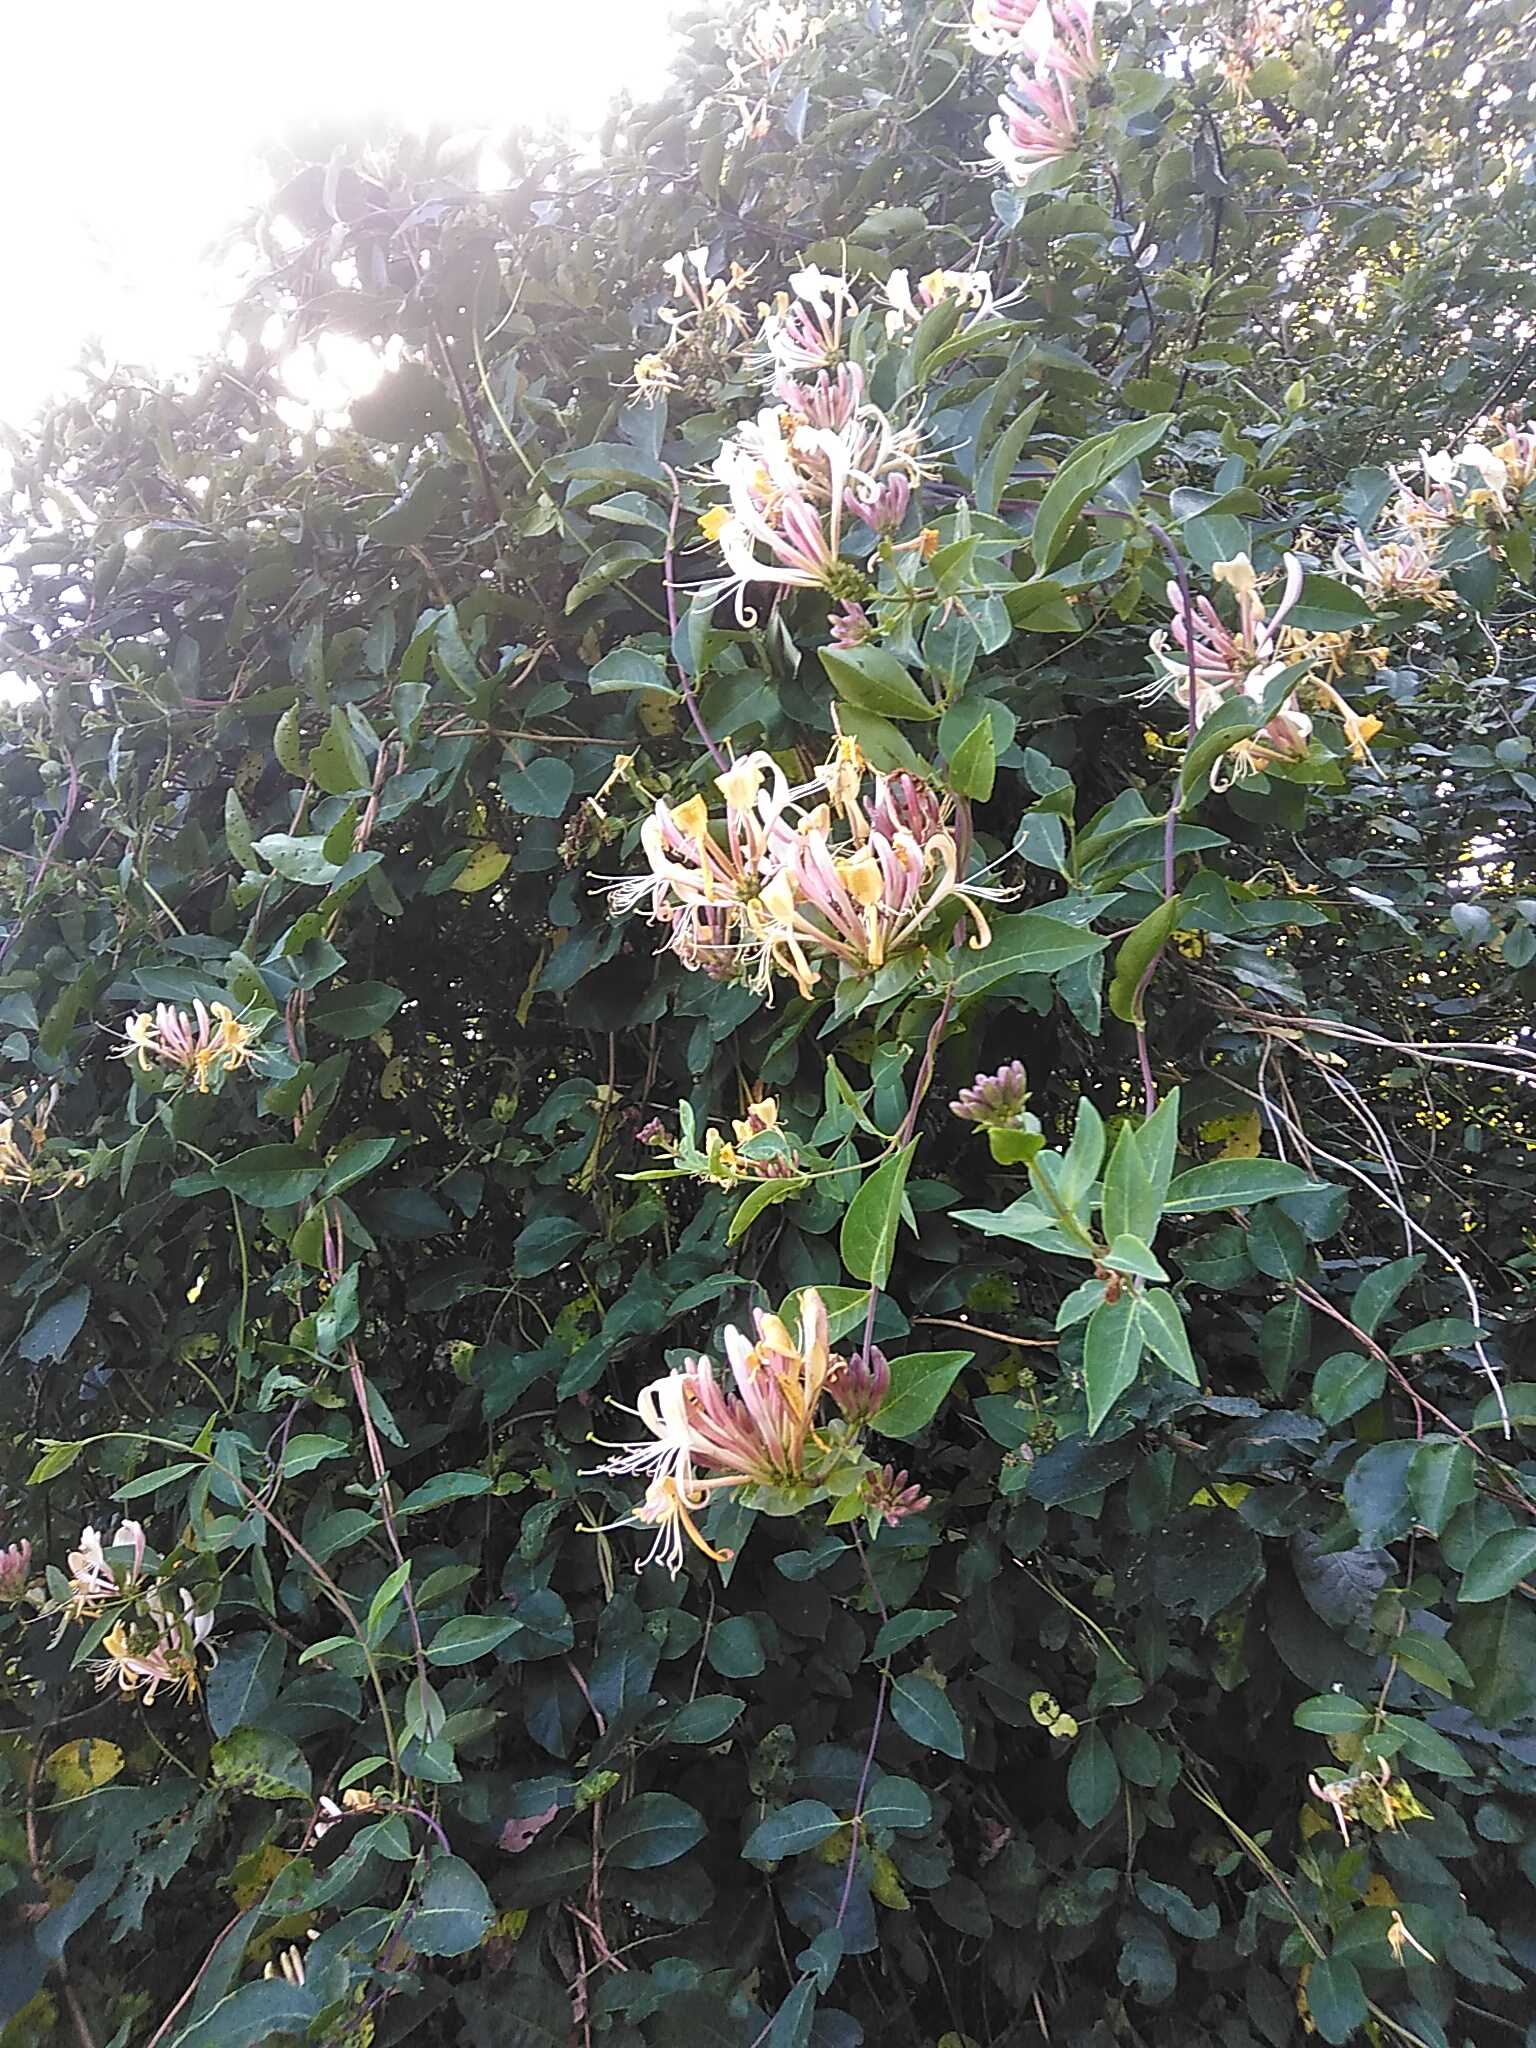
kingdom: Plantae
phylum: Tracheophyta
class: Magnoliopsida
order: Dipsacales
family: Caprifoliaceae
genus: Lonicera
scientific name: Lonicera periclymenum
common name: Almindelig gedeblad
